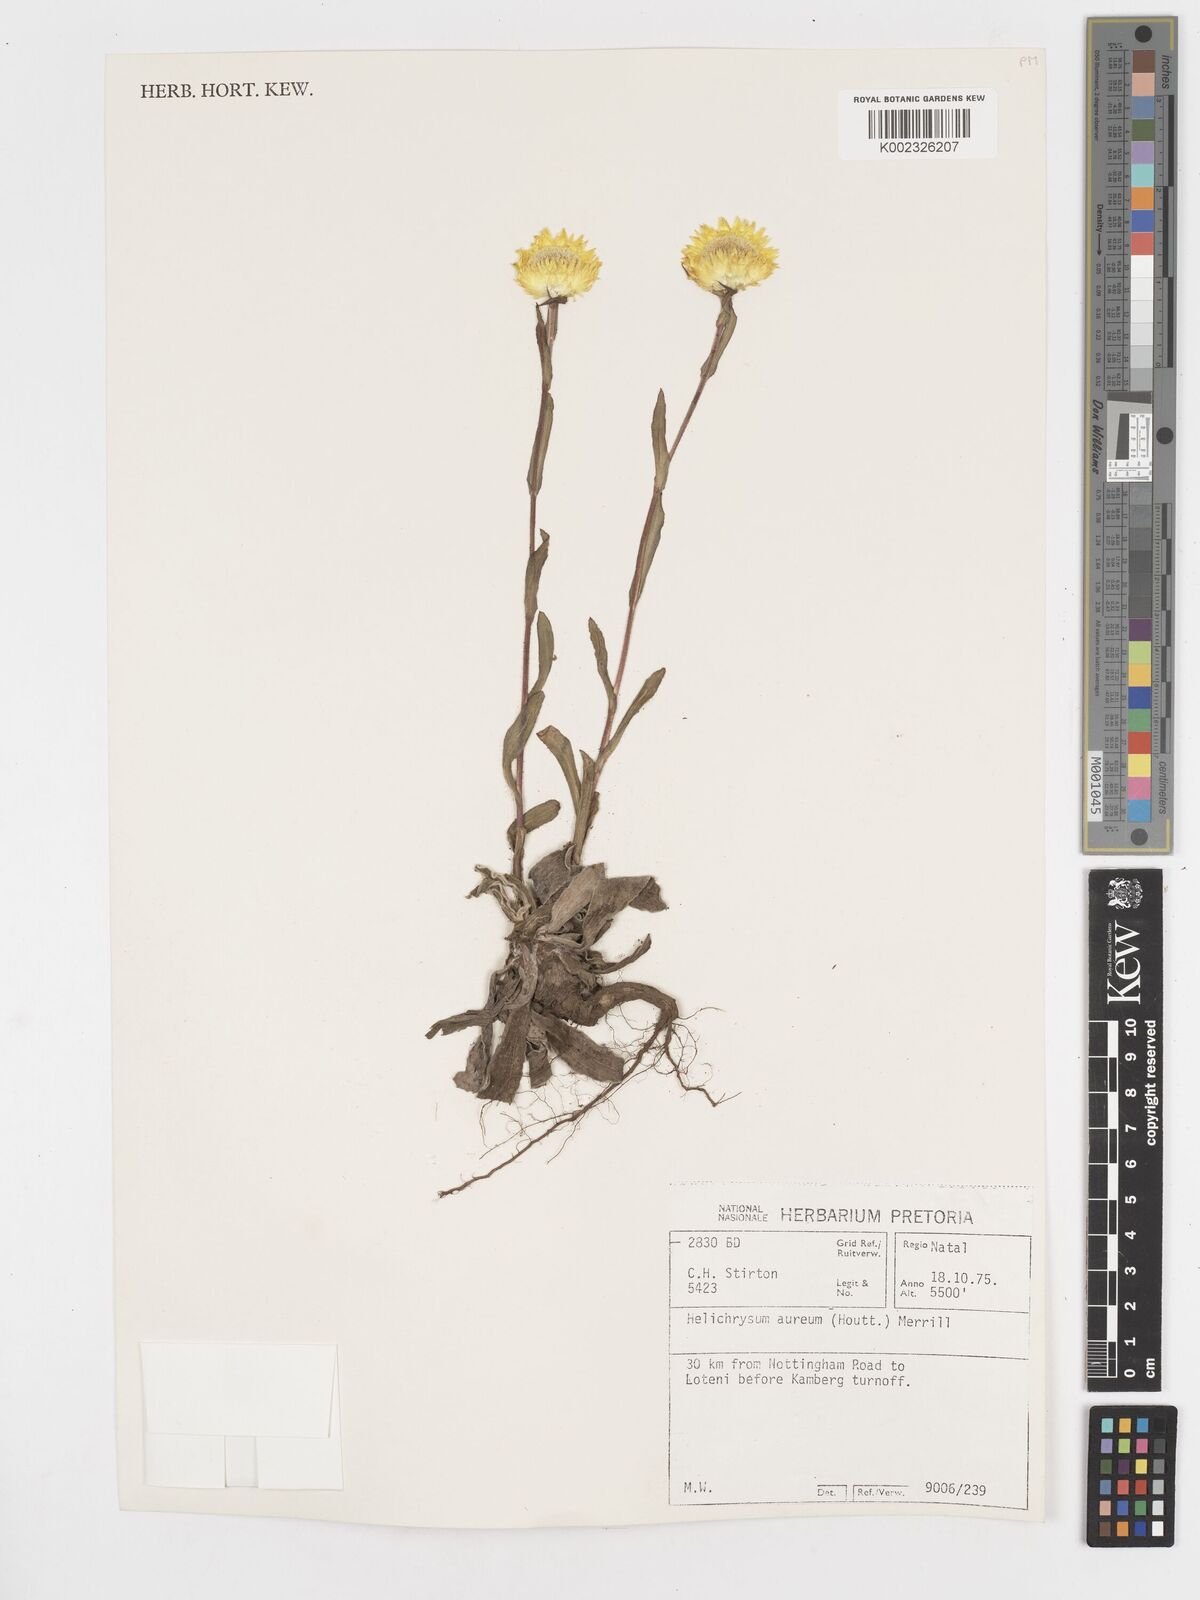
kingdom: Plantae
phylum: Tracheophyta
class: Magnoliopsida
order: Asterales
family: Asteraceae
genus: Helichrysum
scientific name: Helichrysum aureum
